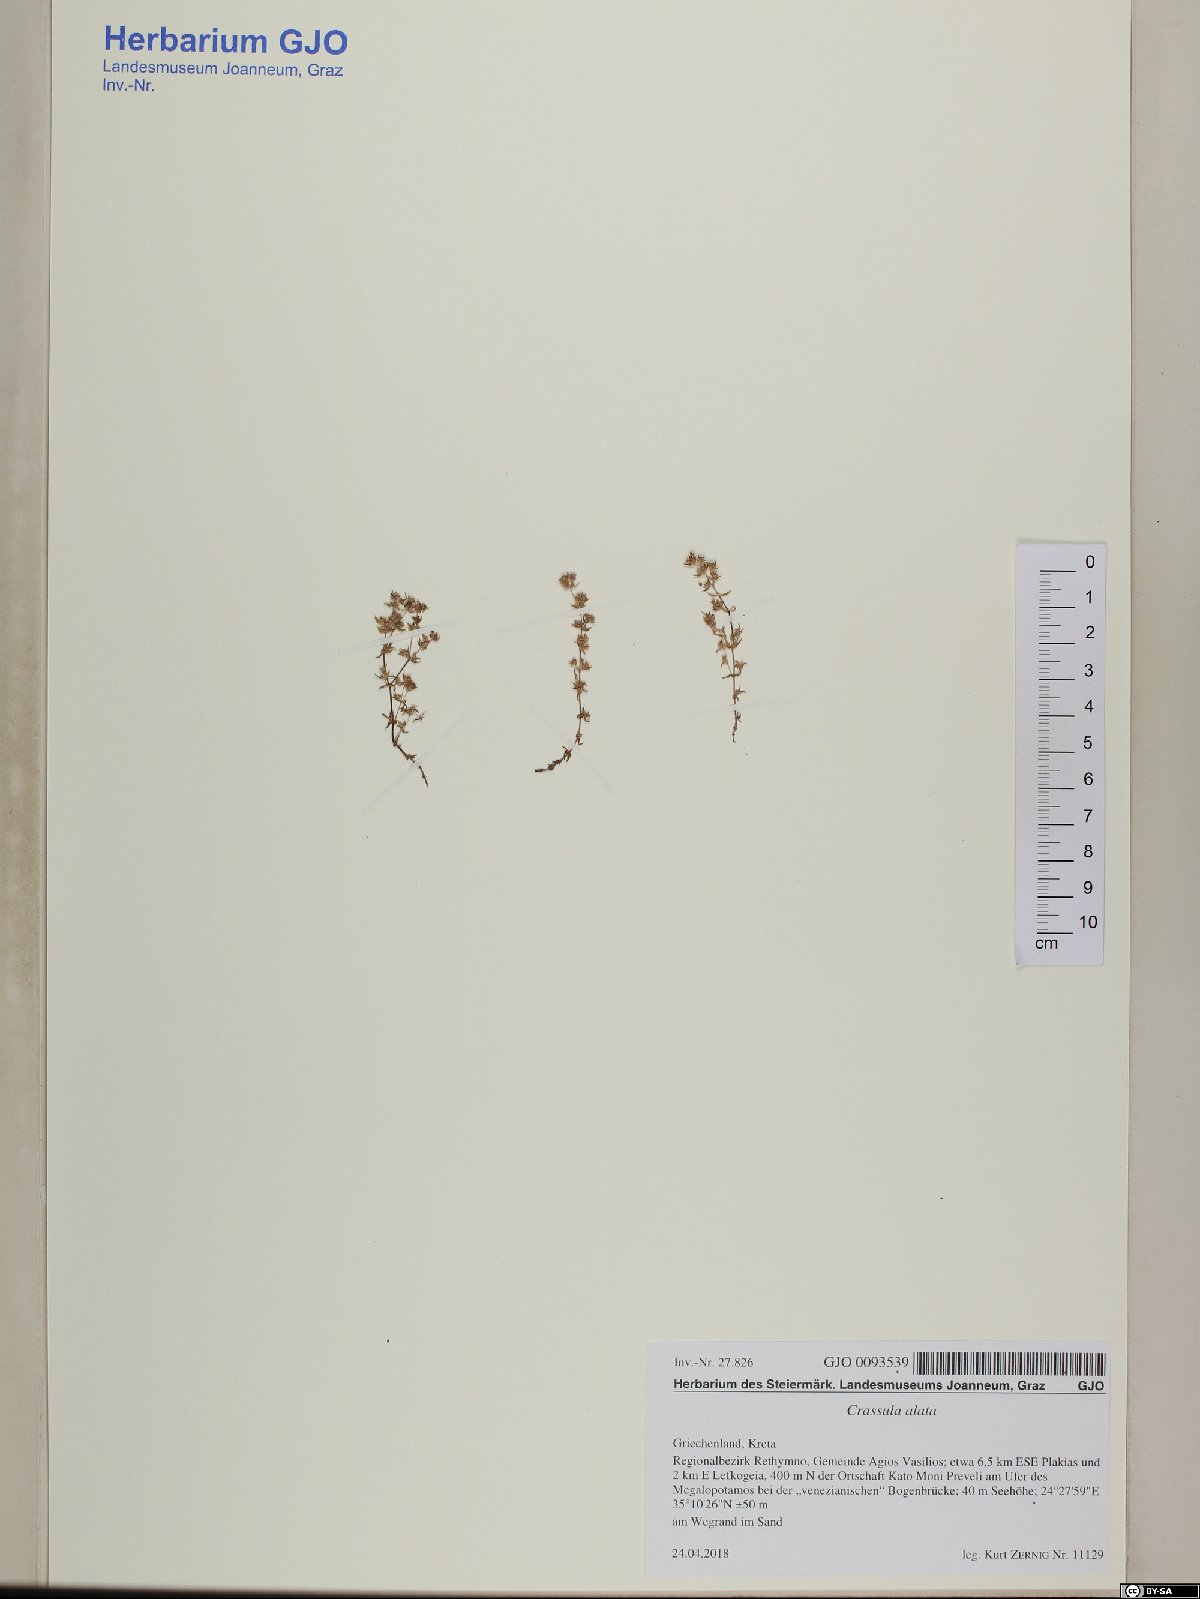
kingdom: Plantae
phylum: Tracheophyta
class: Magnoliopsida
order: Saxifragales
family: Crassulaceae
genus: Crassula
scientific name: Crassula alata
